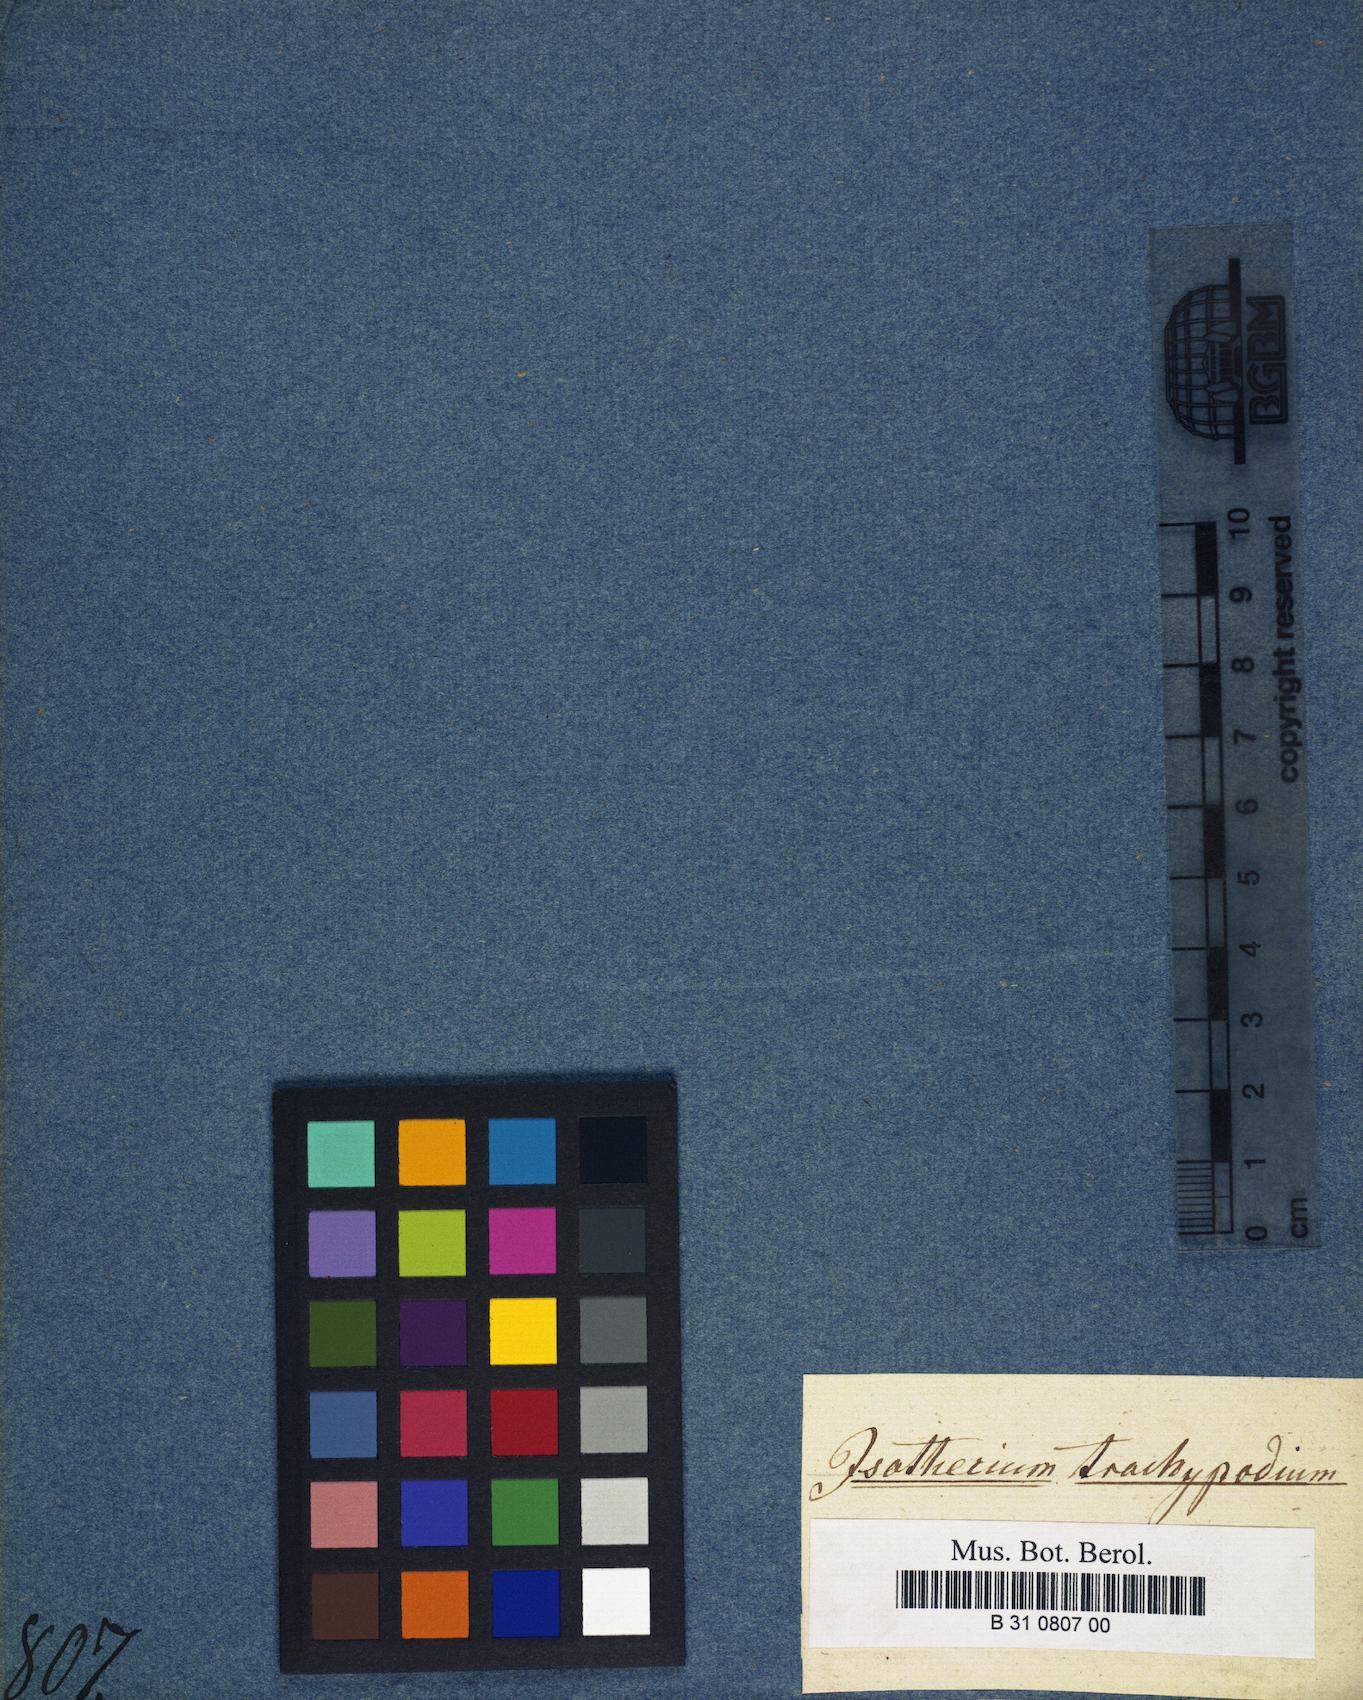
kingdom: Plantae
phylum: Bryophyta
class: Bryopsida
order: Hypnales
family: Brachytheciaceae
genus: Brachytheciastrum
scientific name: Brachytheciastrum trachypodium
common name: Lawers feather-moss
